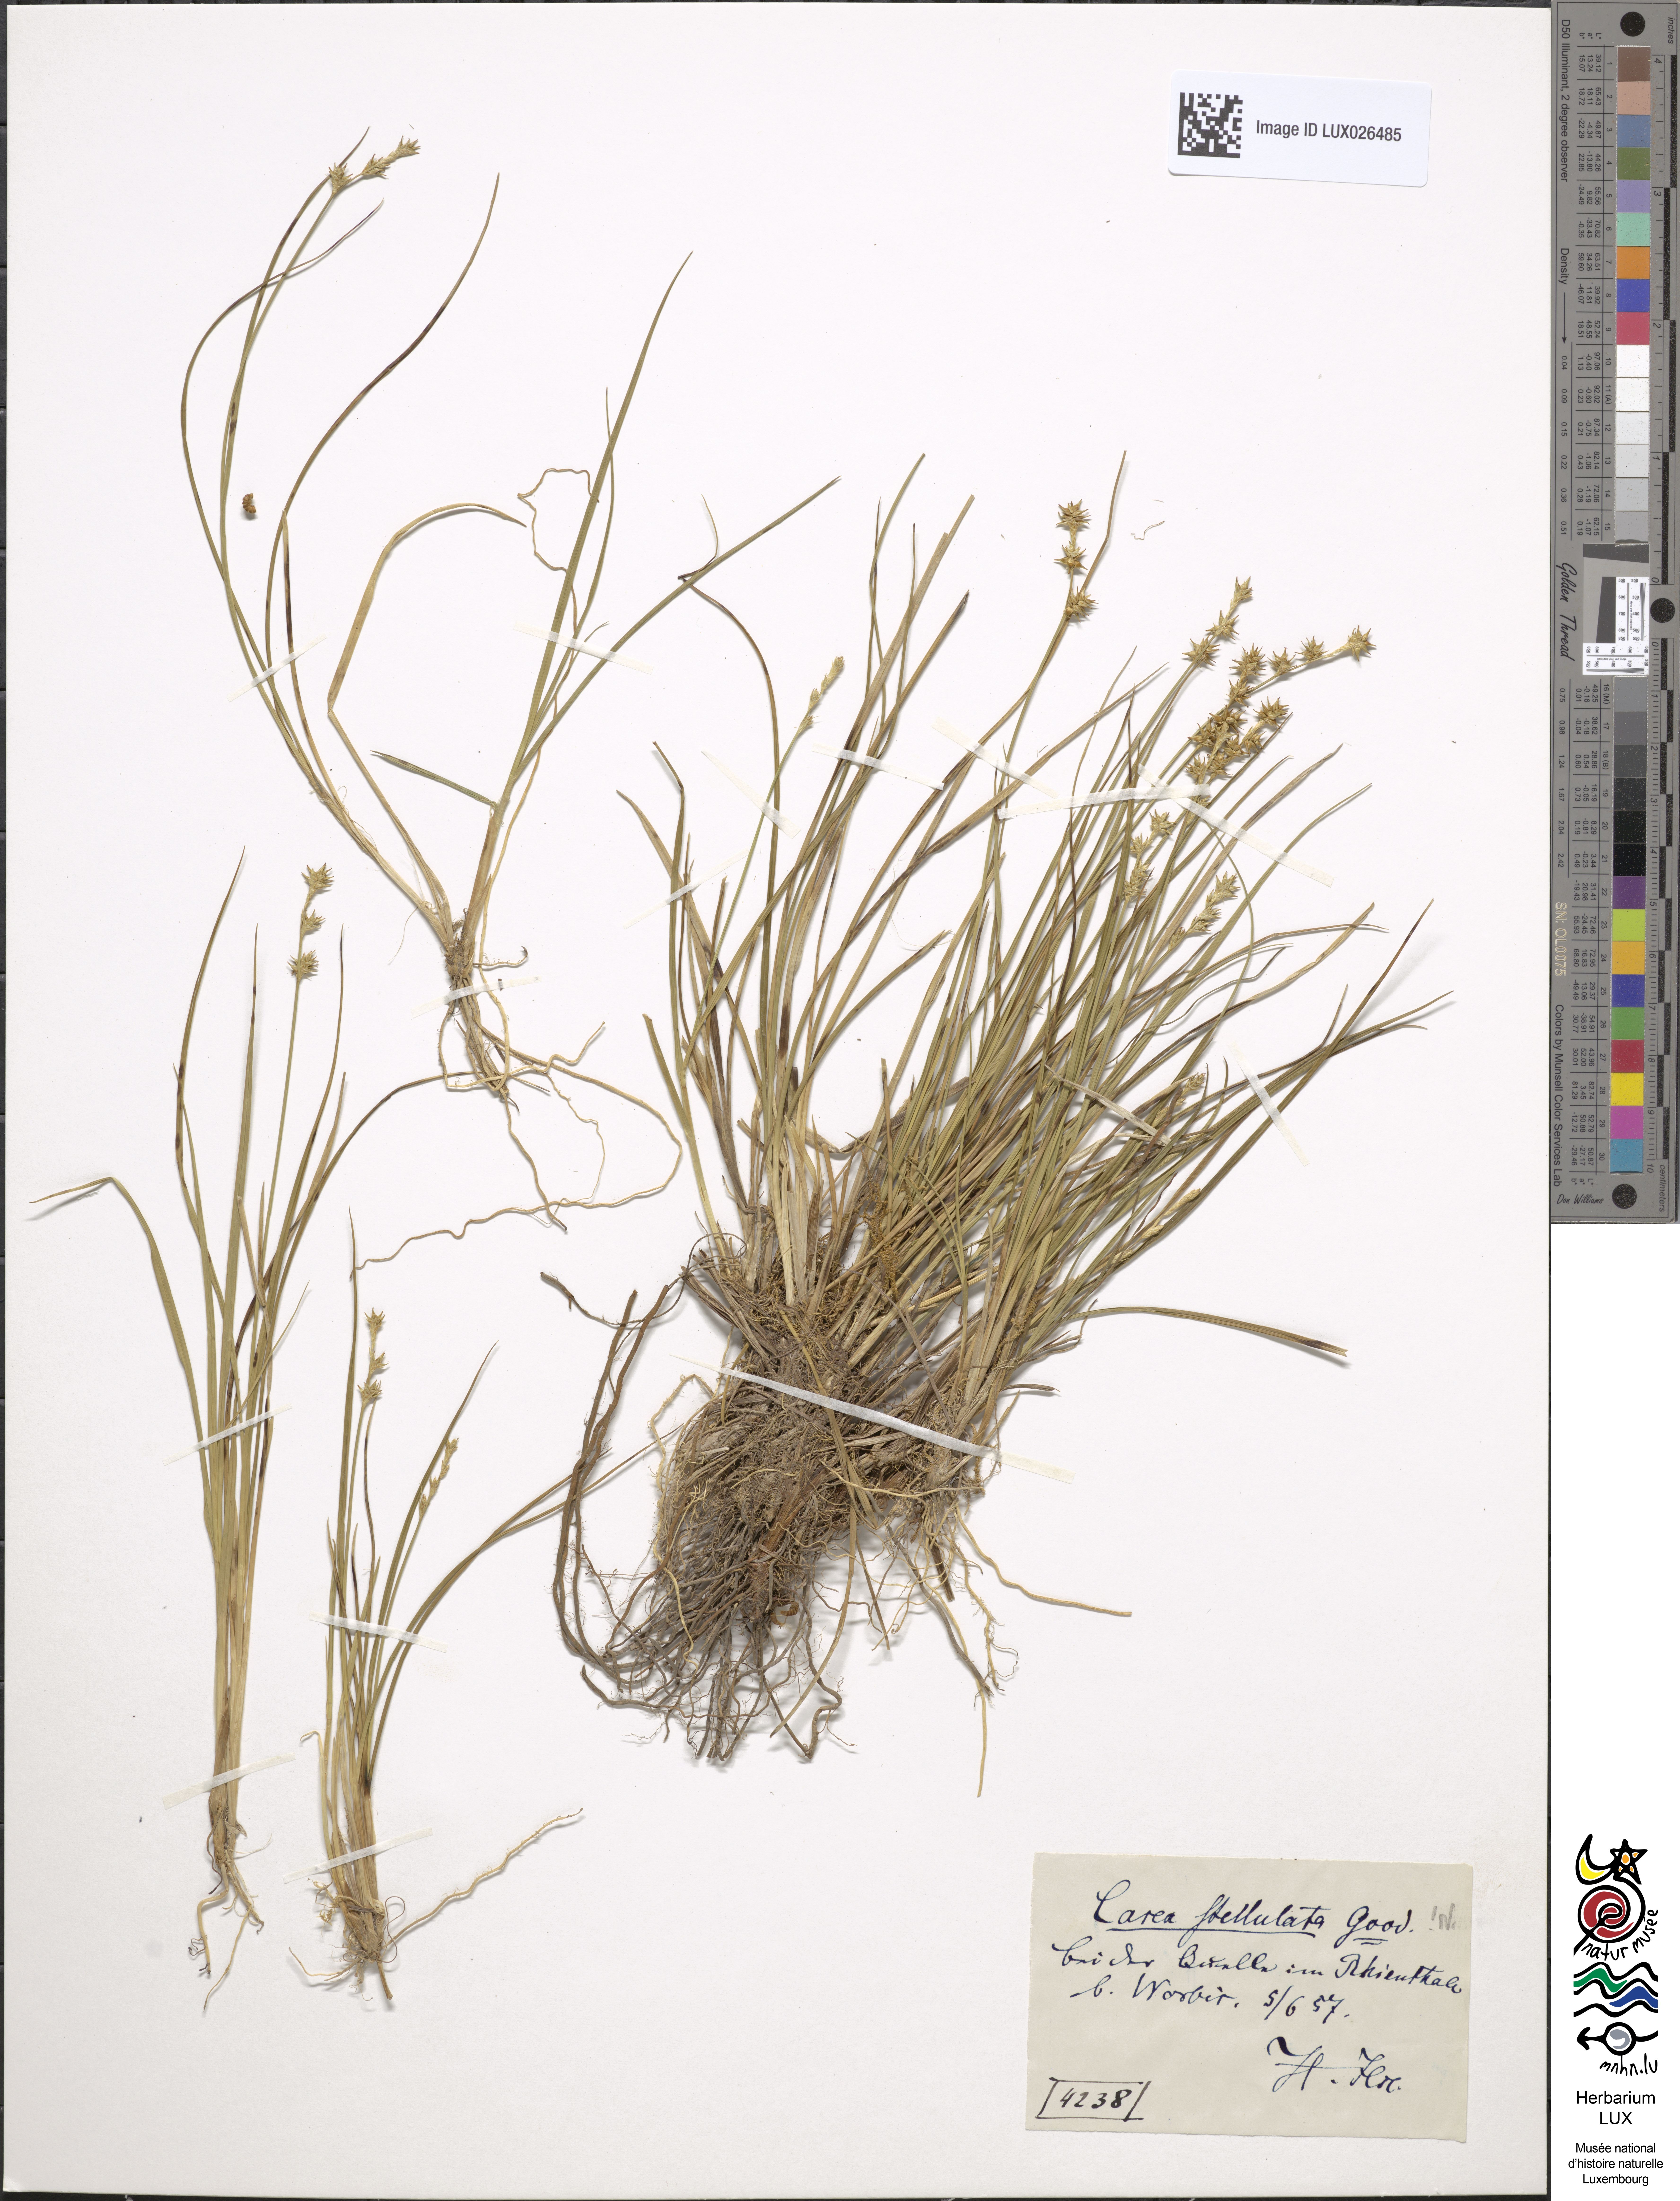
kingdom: Plantae
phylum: Tracheophyta
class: Liliopsida
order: Poales
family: Cyperaceae
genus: Carex
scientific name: Carex echinata
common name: Star sedge
